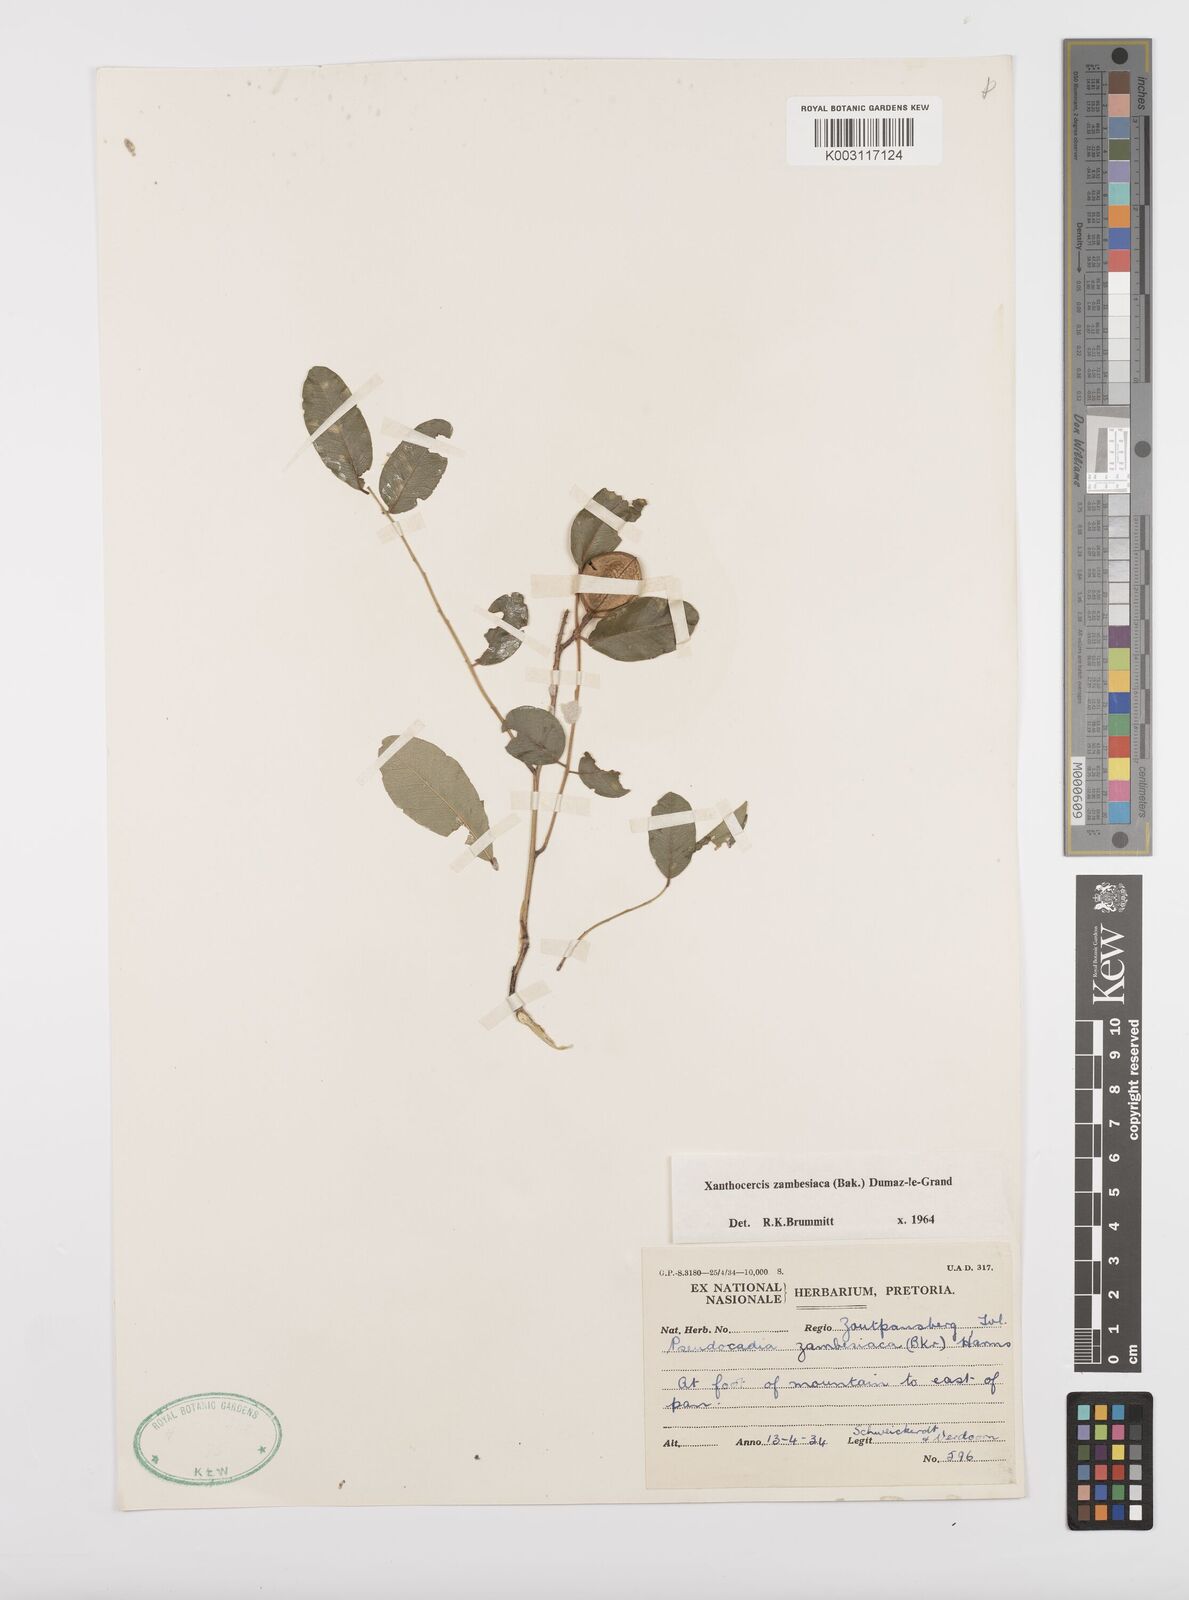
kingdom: Plantae
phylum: Tracheophyta
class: Magnoliopsida
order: Fabales
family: Fabaceae
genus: Xanthocercis
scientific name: Xanthocercis zambesiaca
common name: Nyala-tree
